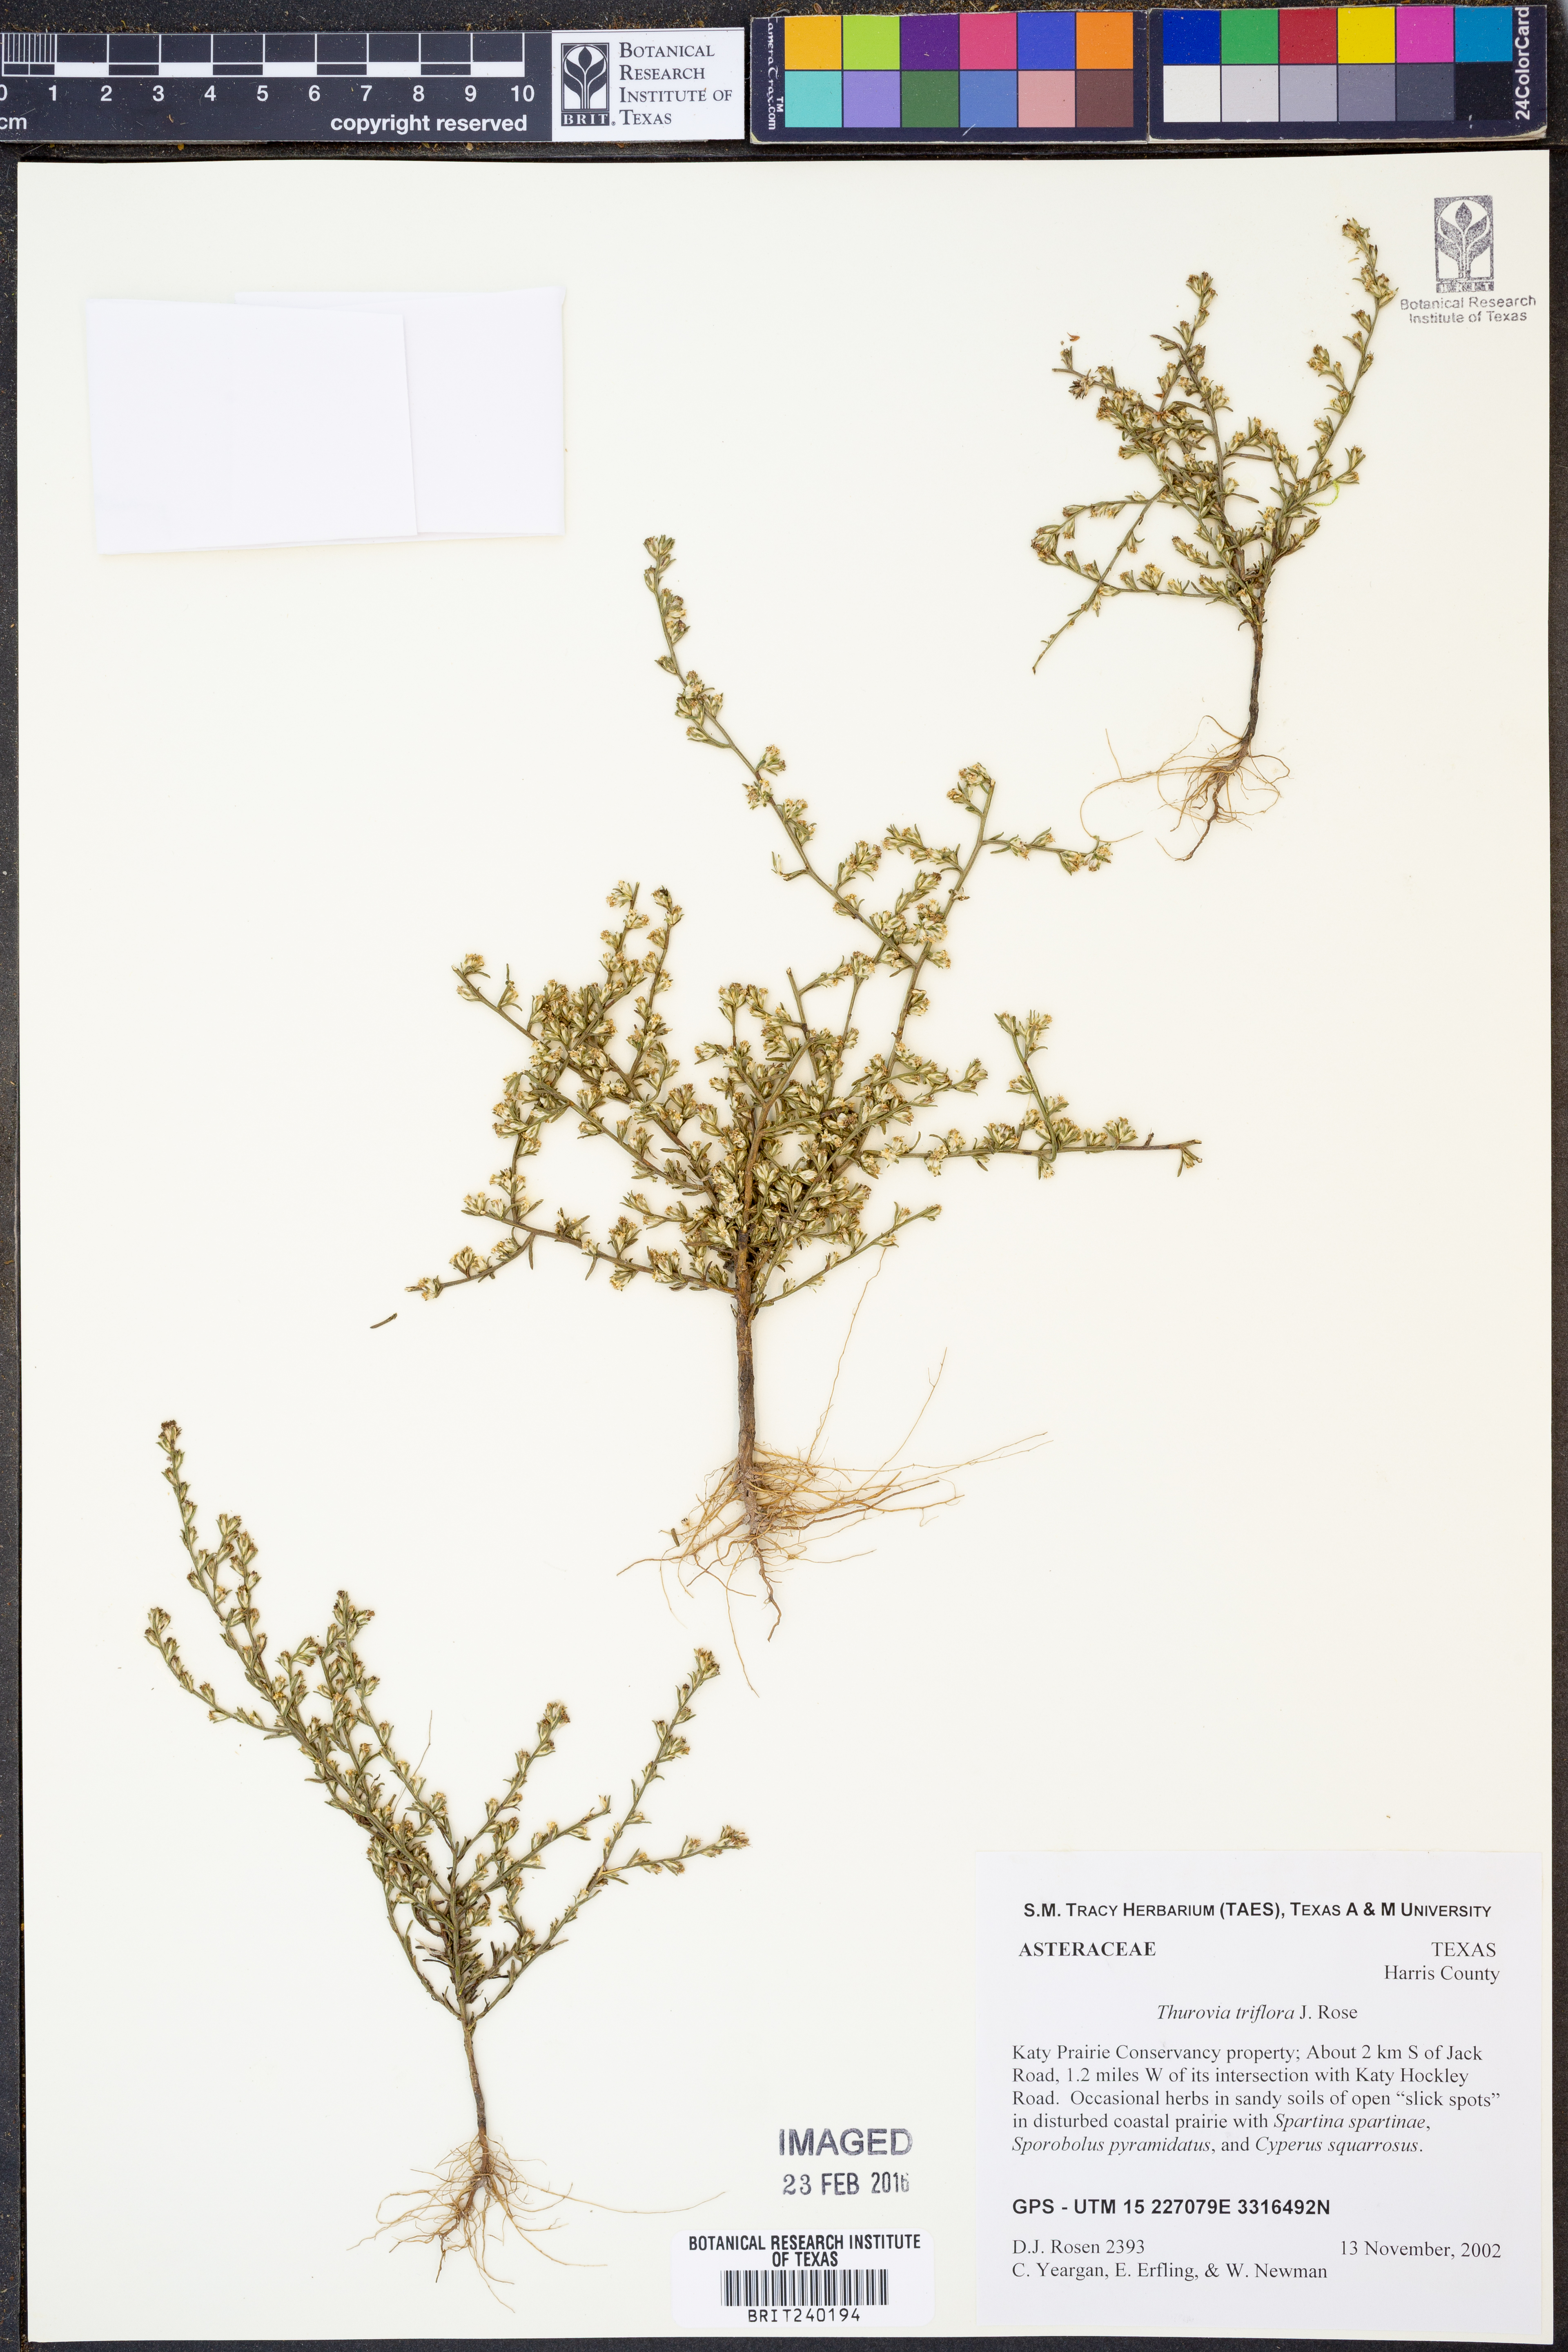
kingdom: Plantae
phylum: Tracheophyta
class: Magnoliopsida
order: Asterales
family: Asteraceae
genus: Thurovia
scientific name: Thurovia triflora
